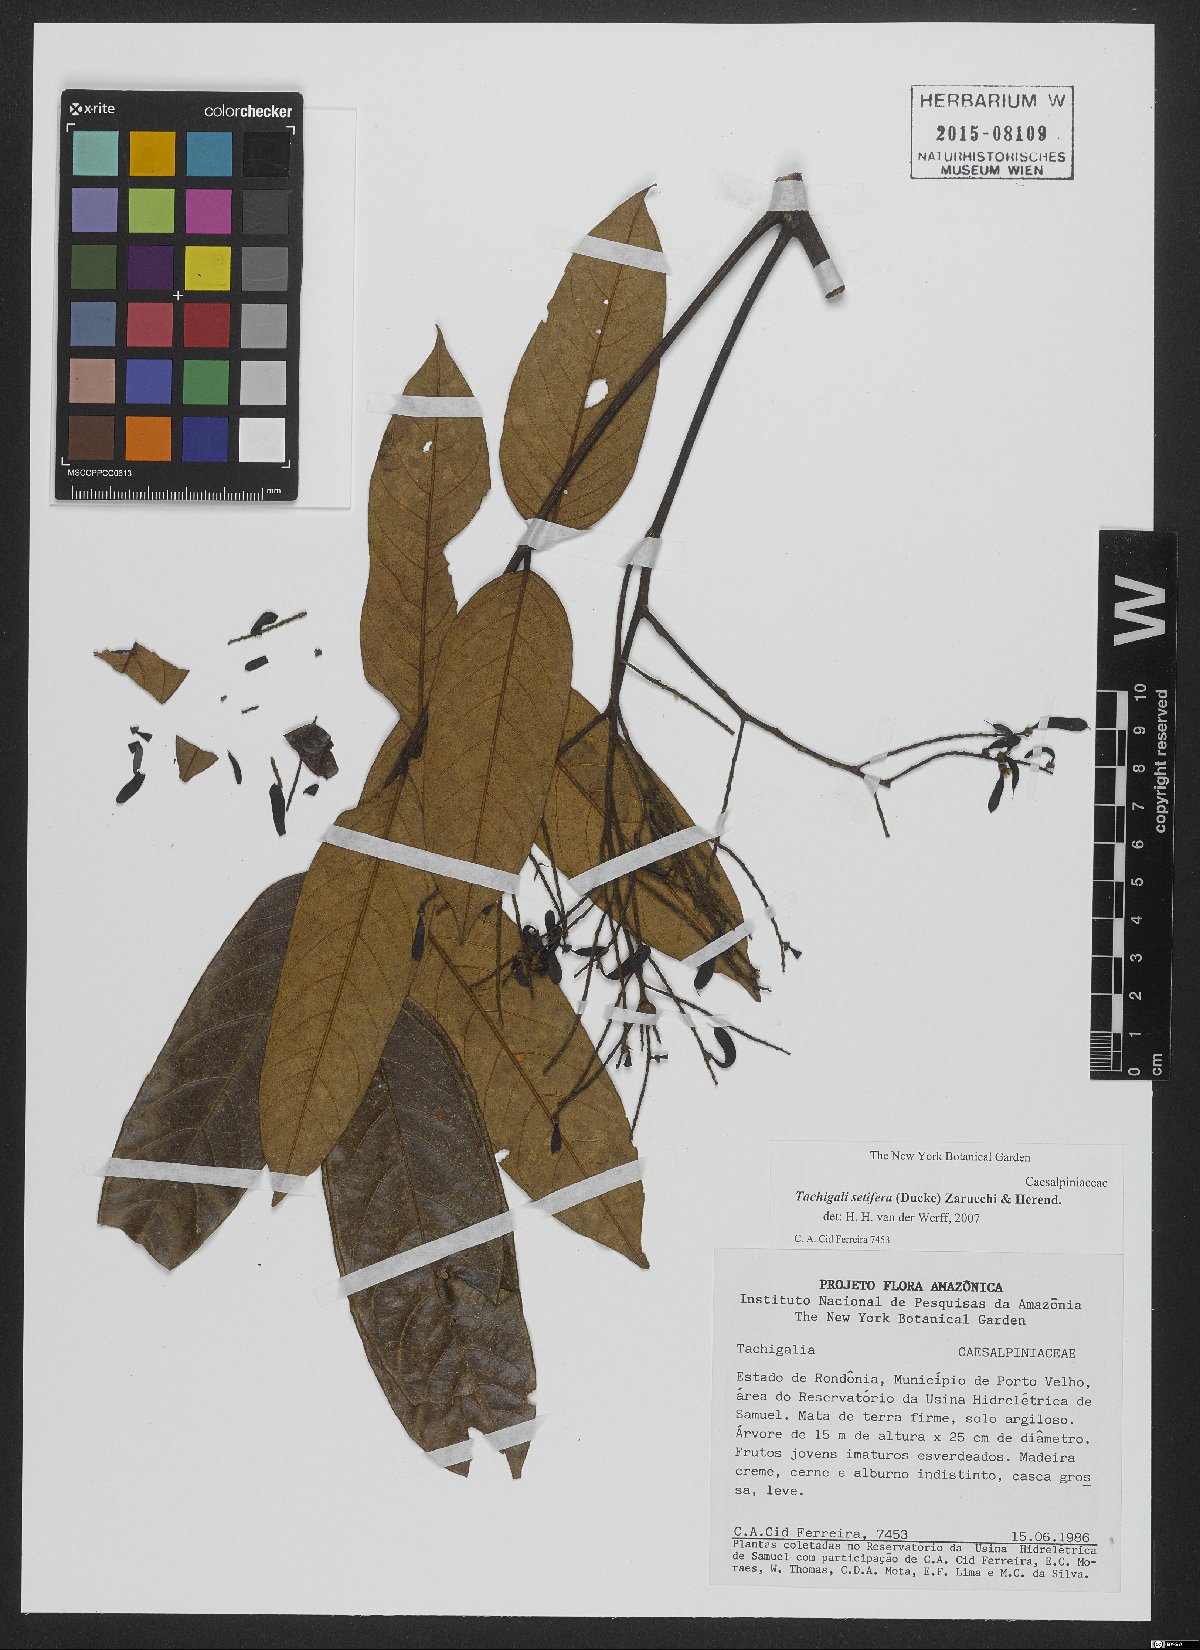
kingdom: Plantae
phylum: Tracheophyta
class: Magnoliopsida
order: Fabales
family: Fabaceae
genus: Tachigali
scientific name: Tachigali setifera
